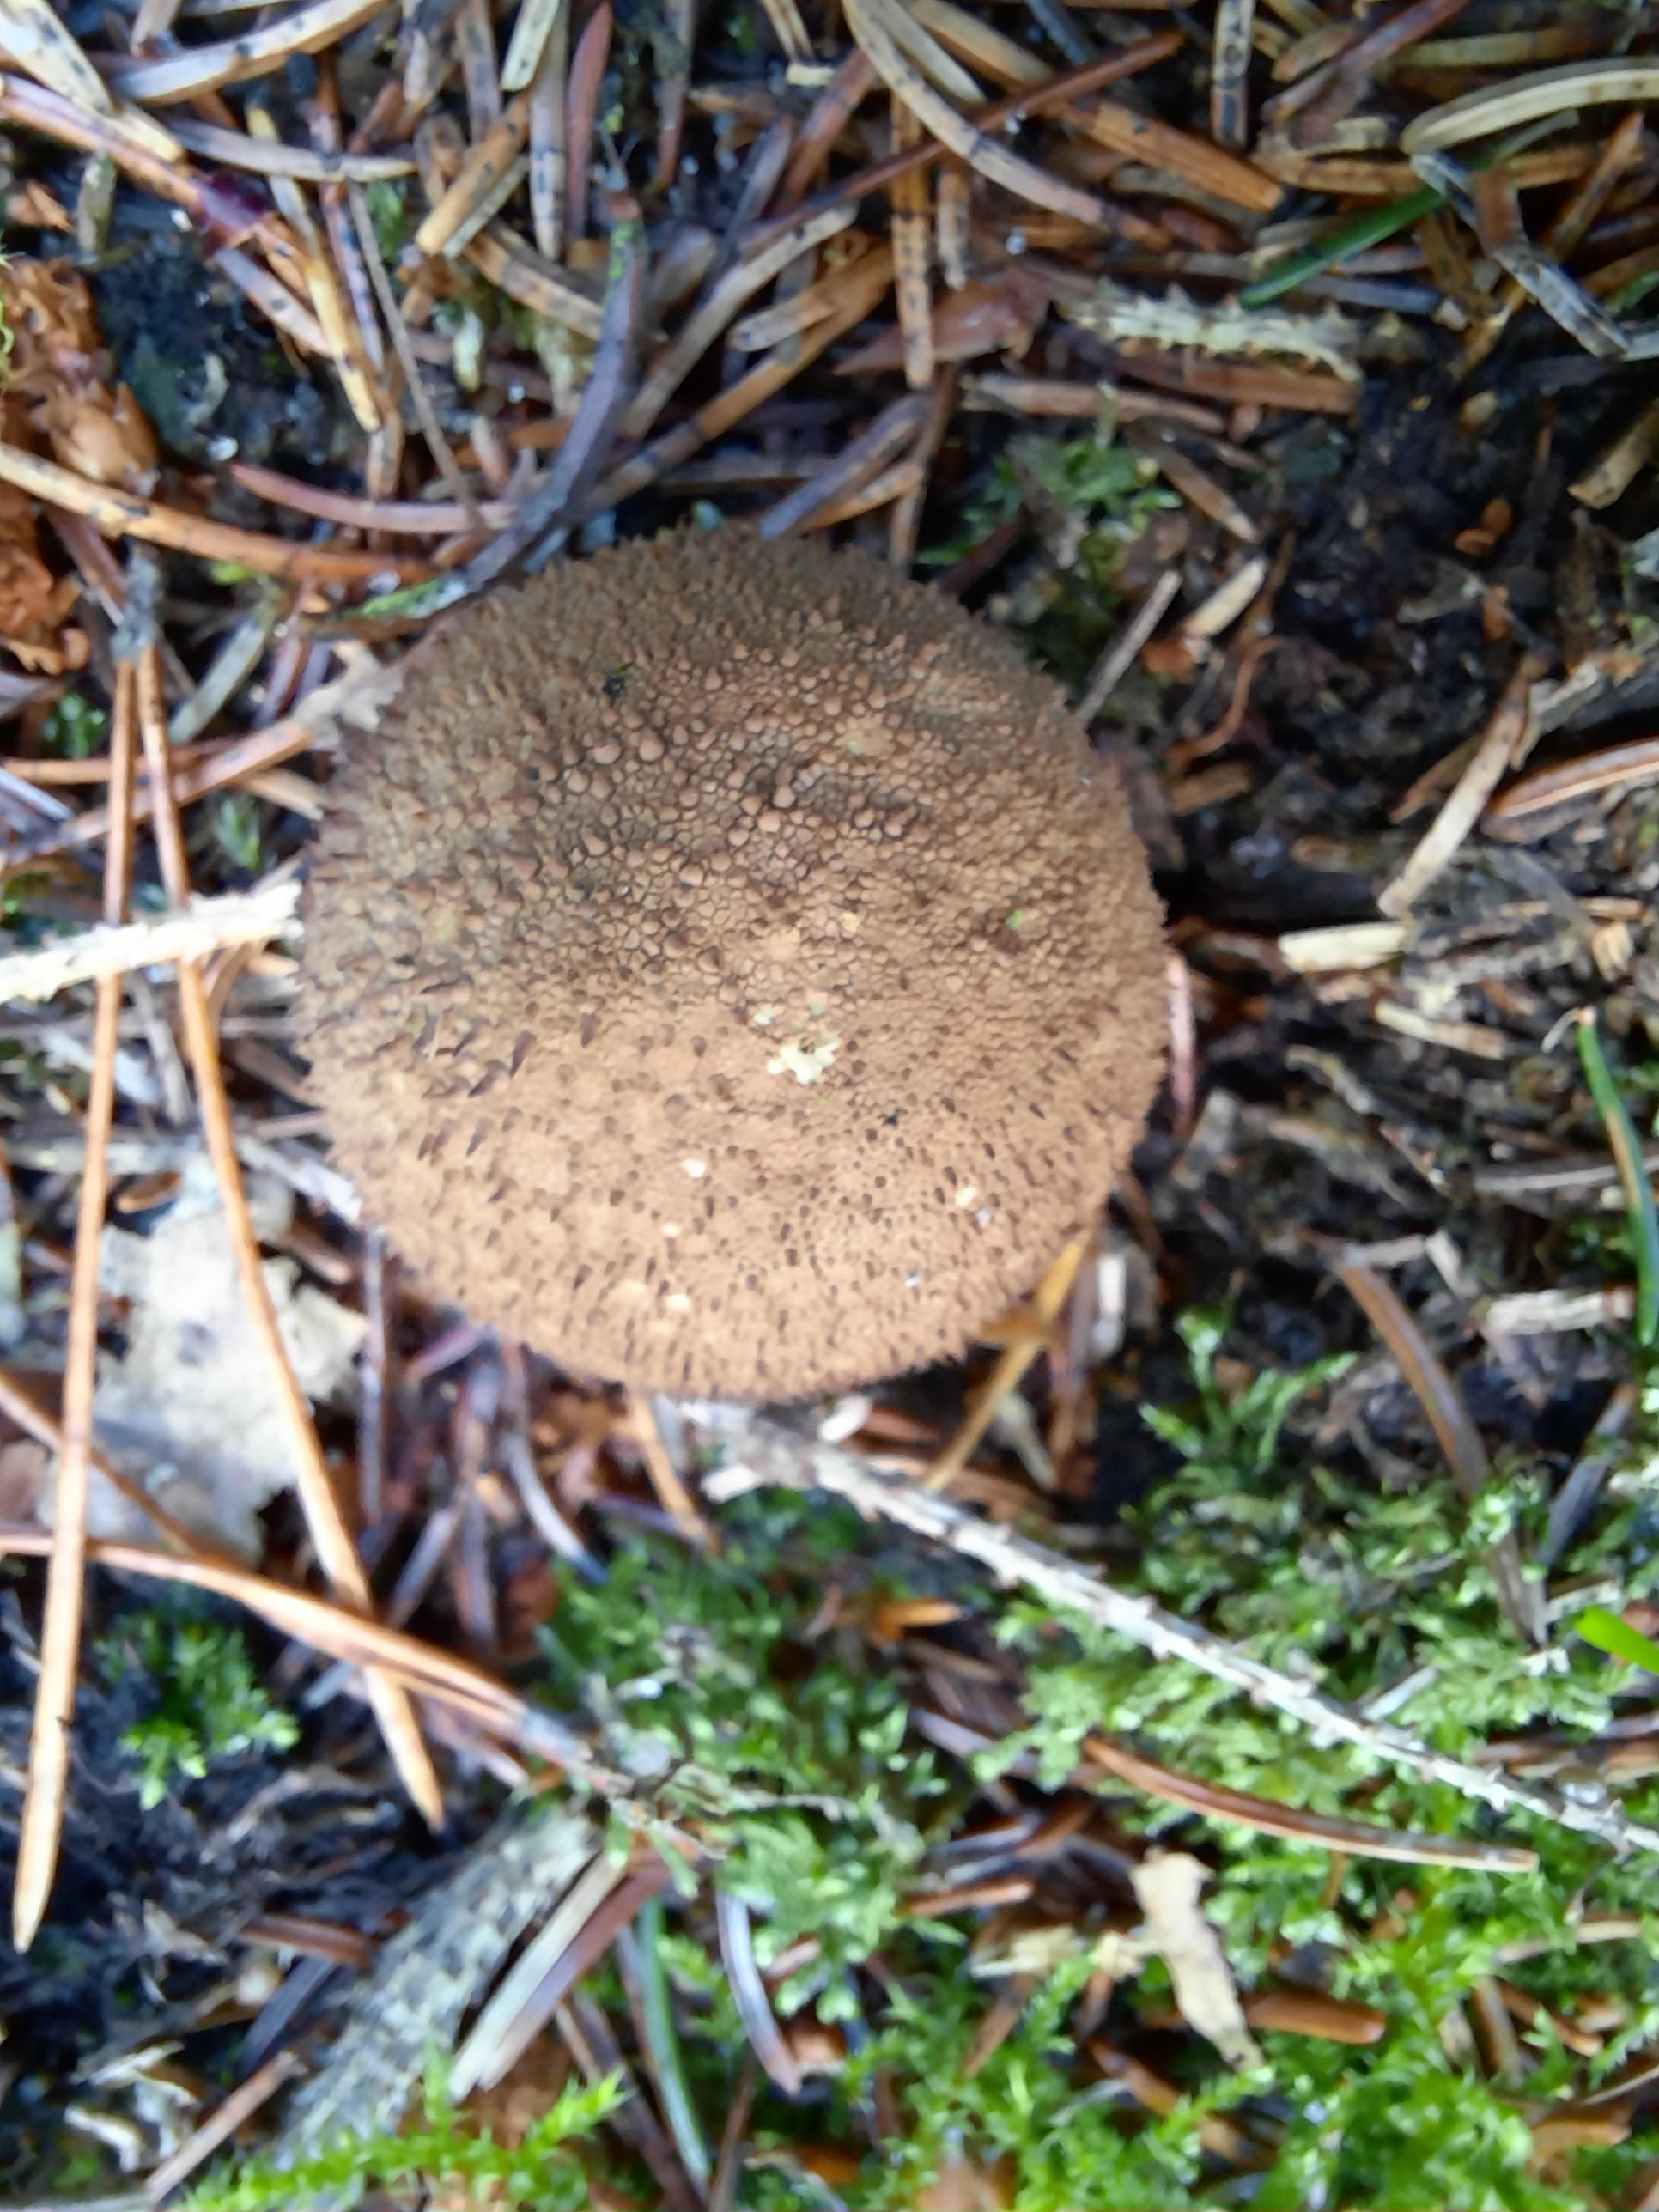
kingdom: Fungi
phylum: Basidiomycota
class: Agaricomycetes
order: Agaricales
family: Lycoperdaceae
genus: Lycoperdon
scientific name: Lycoperdon perlatum
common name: krystal-støvbold
